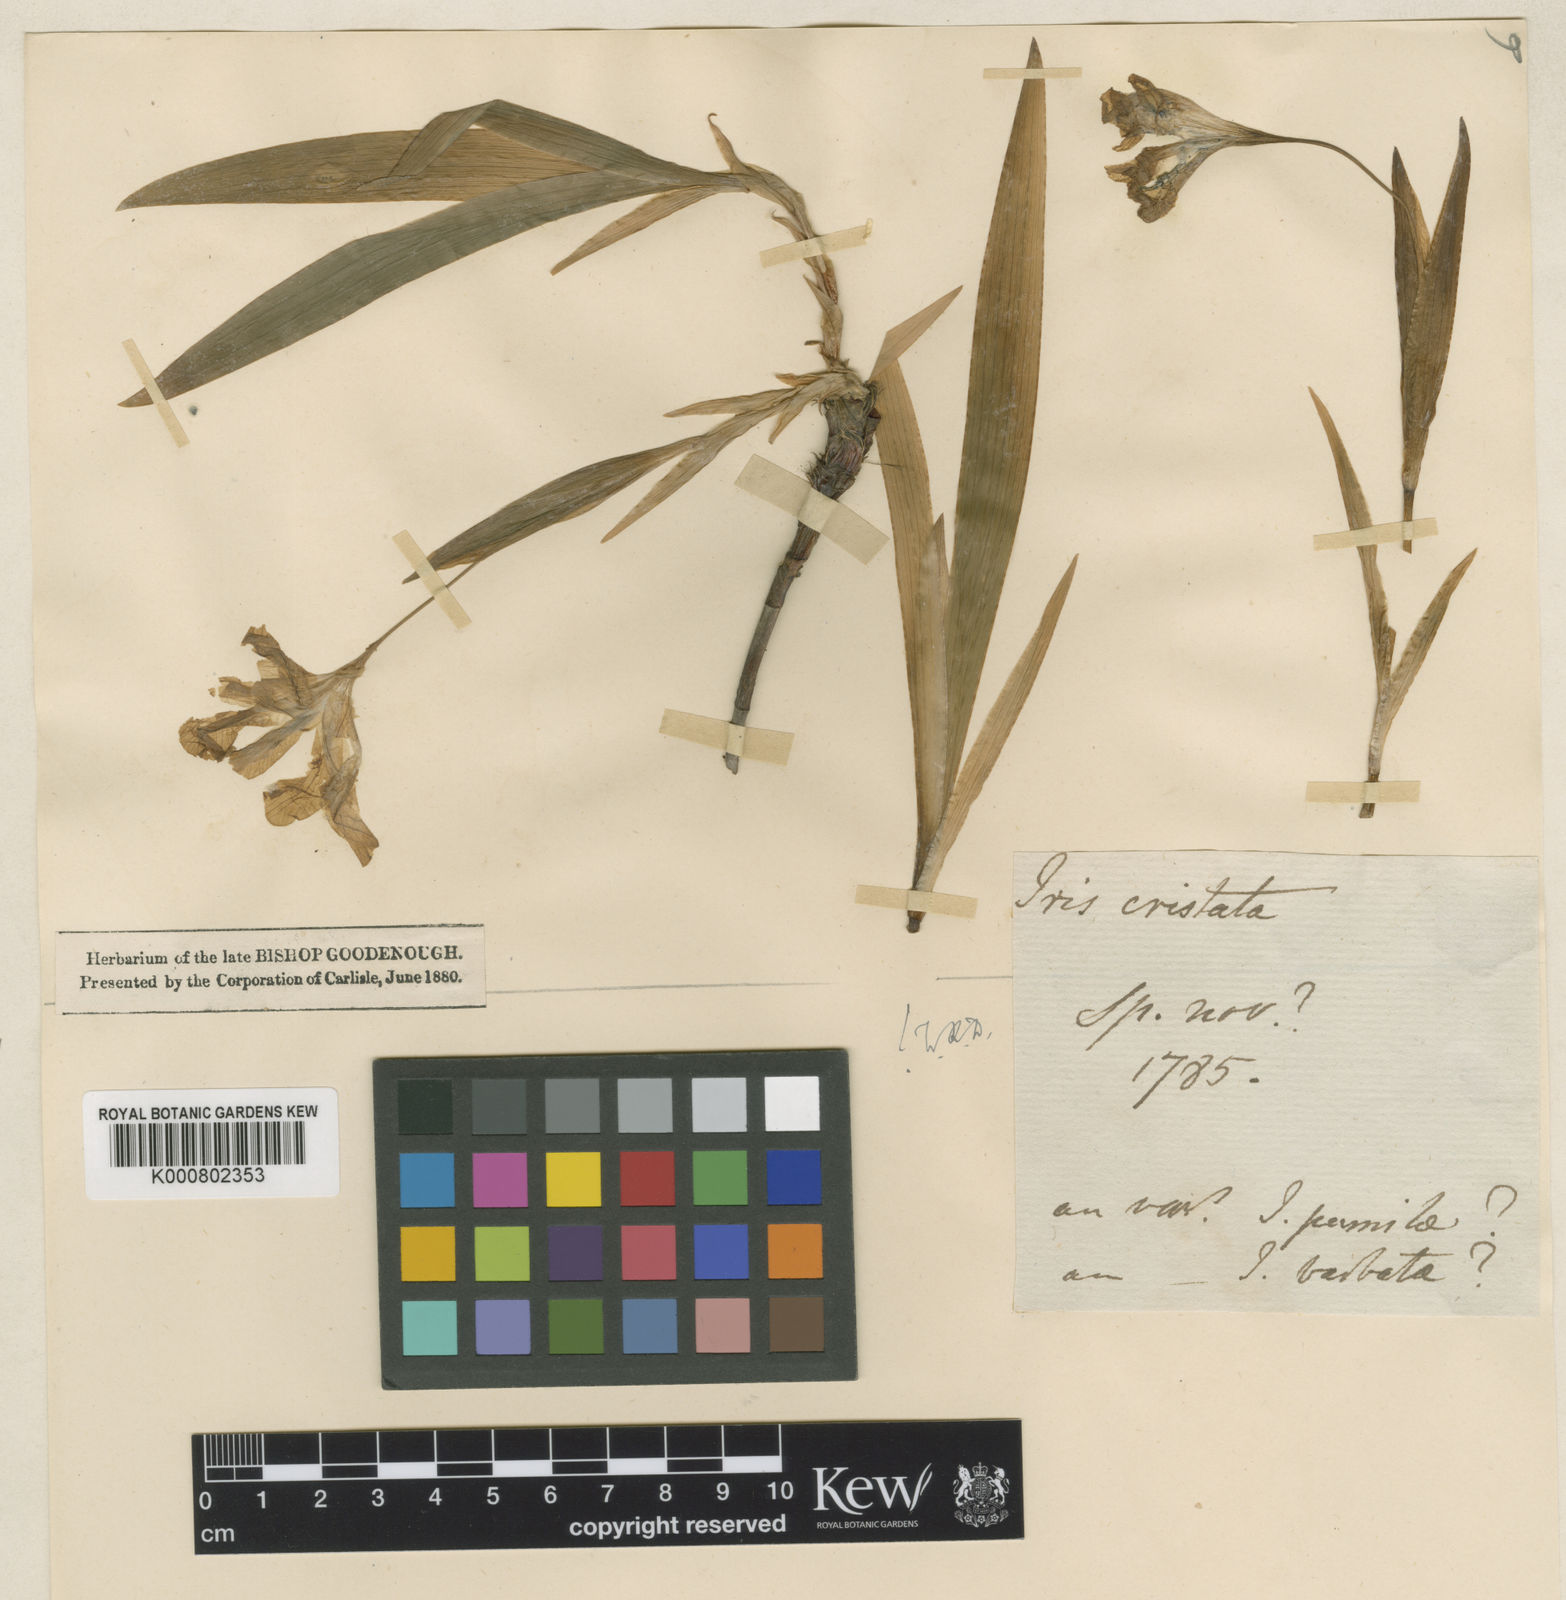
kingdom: Plantae
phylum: Tracheophyta
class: Liliopsida
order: Asparagales
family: Iridaceae
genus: Iris
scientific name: Iris cristata
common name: Crested iris
